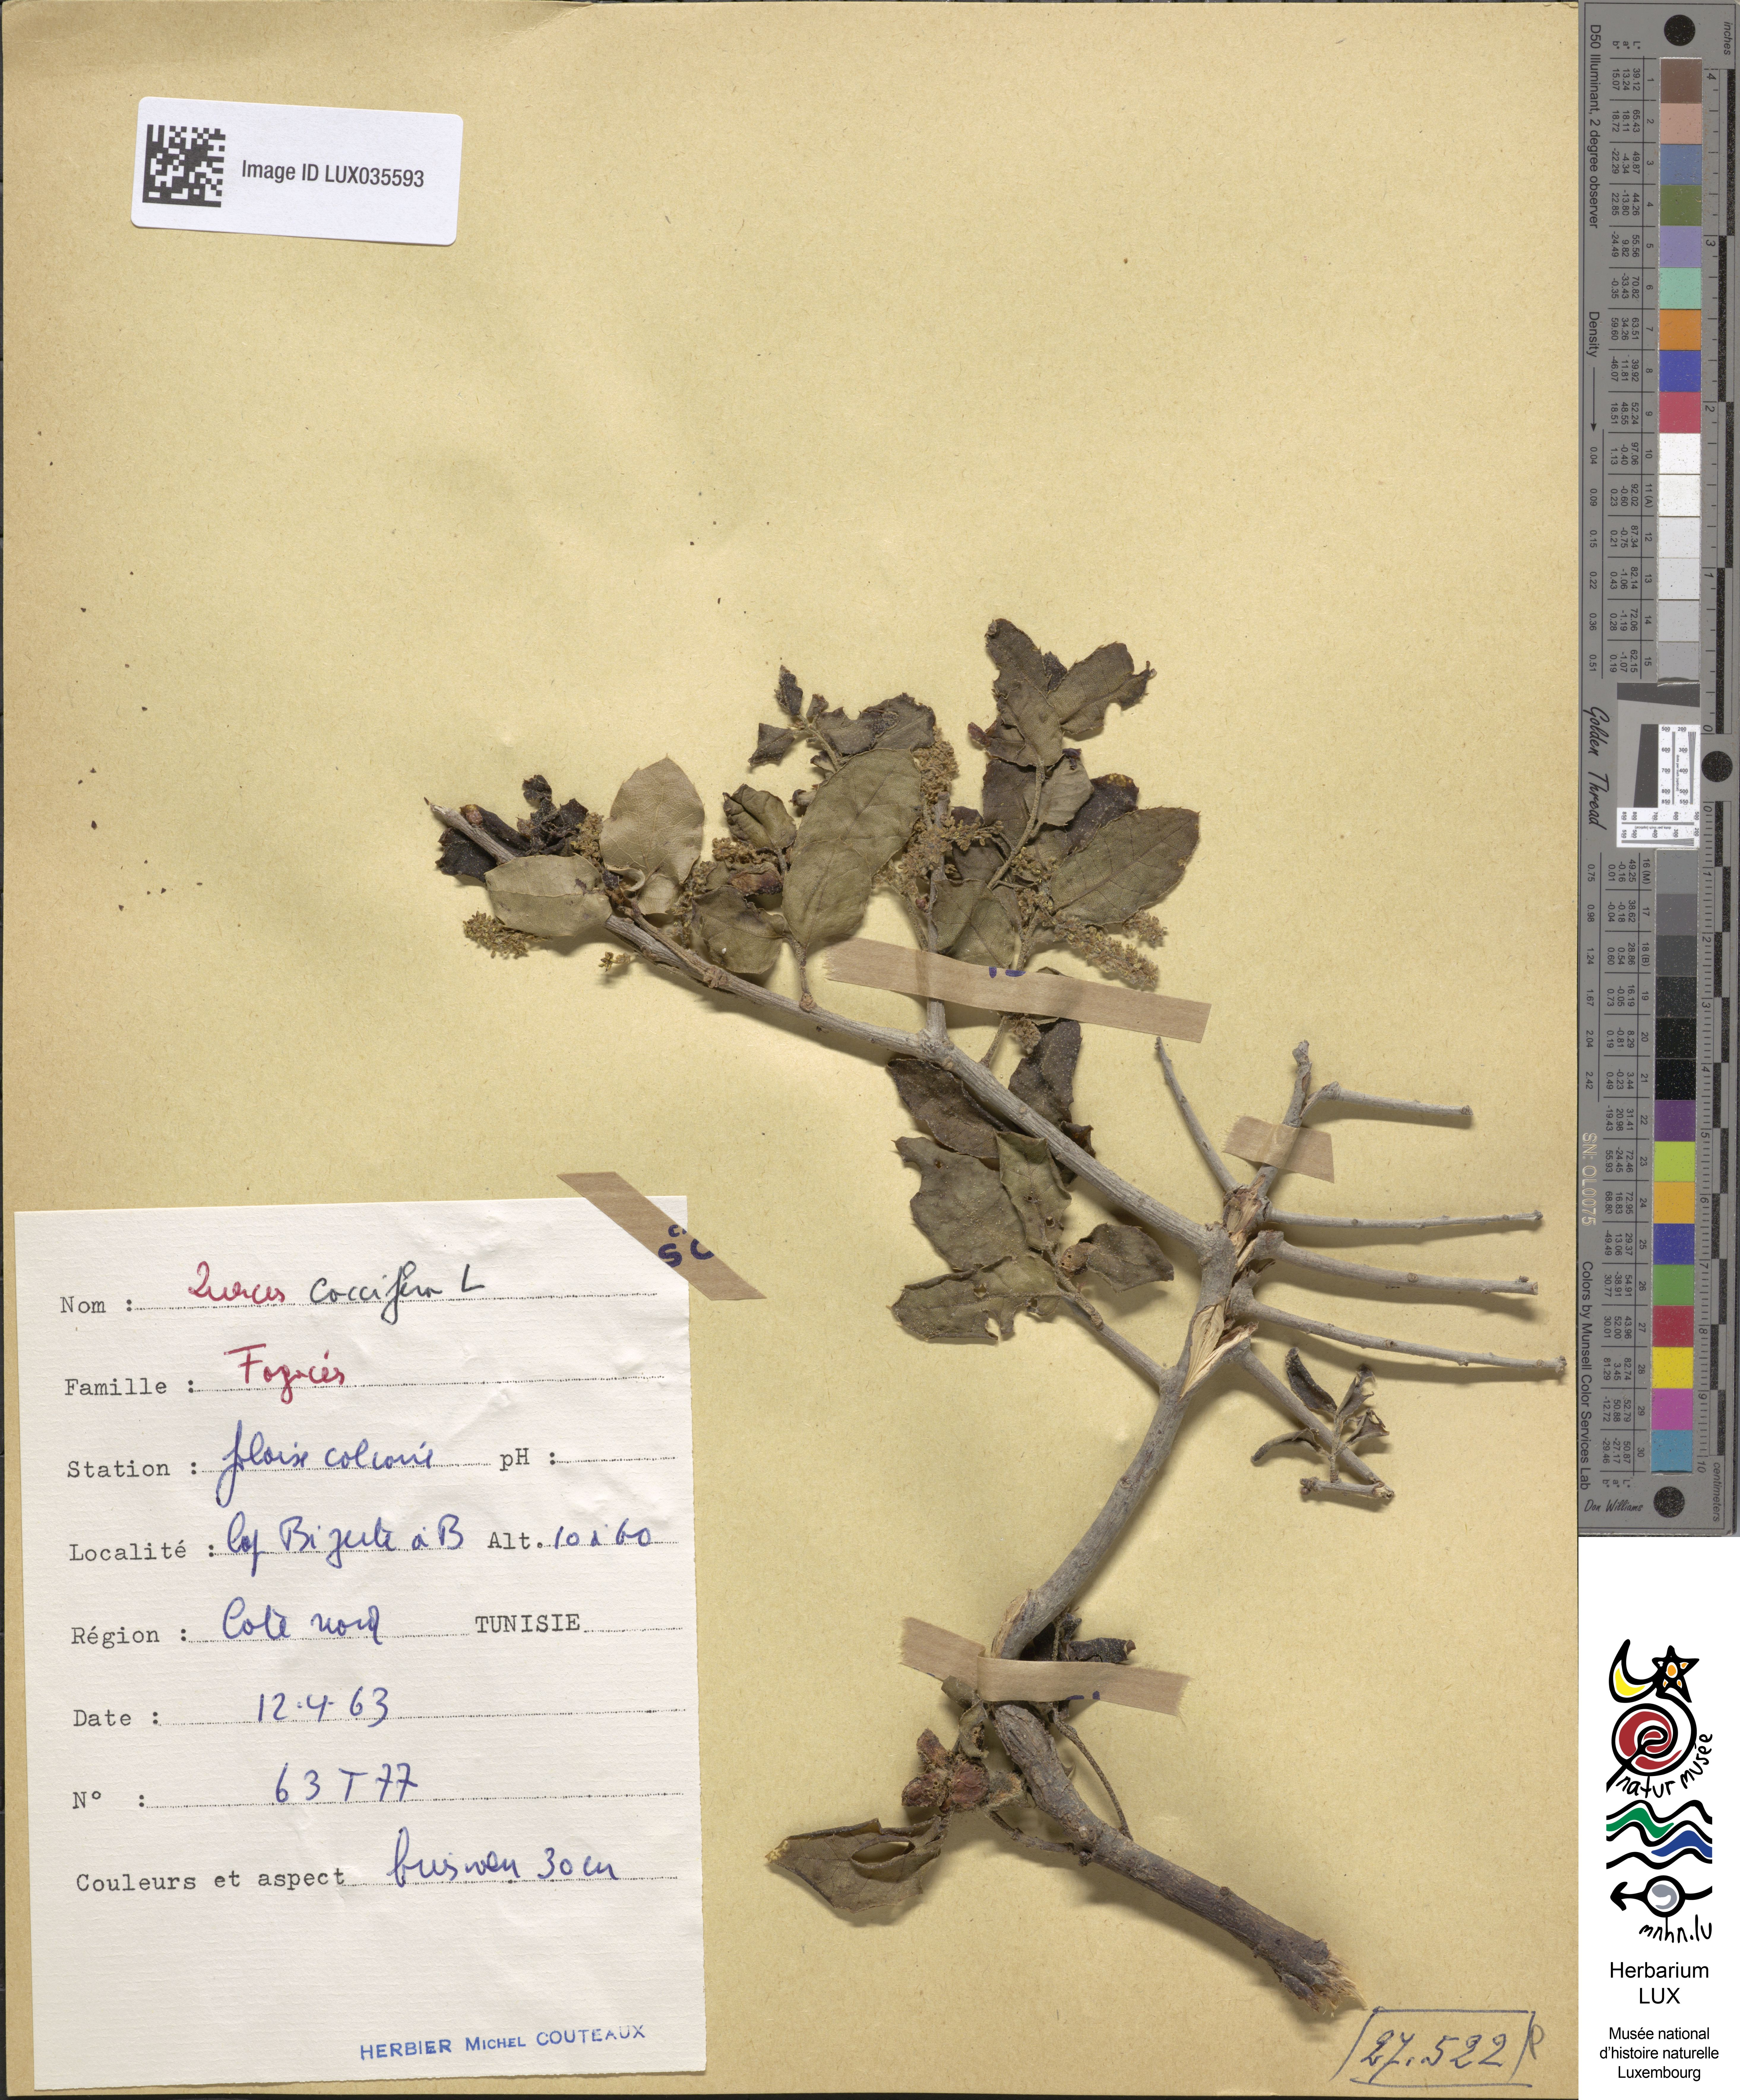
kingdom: Plantae
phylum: Tracheophyta
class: Magnoliopsida
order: Fagales
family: Fagaceae
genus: Quercus
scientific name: Quercus coccifera
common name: Kermes oak
